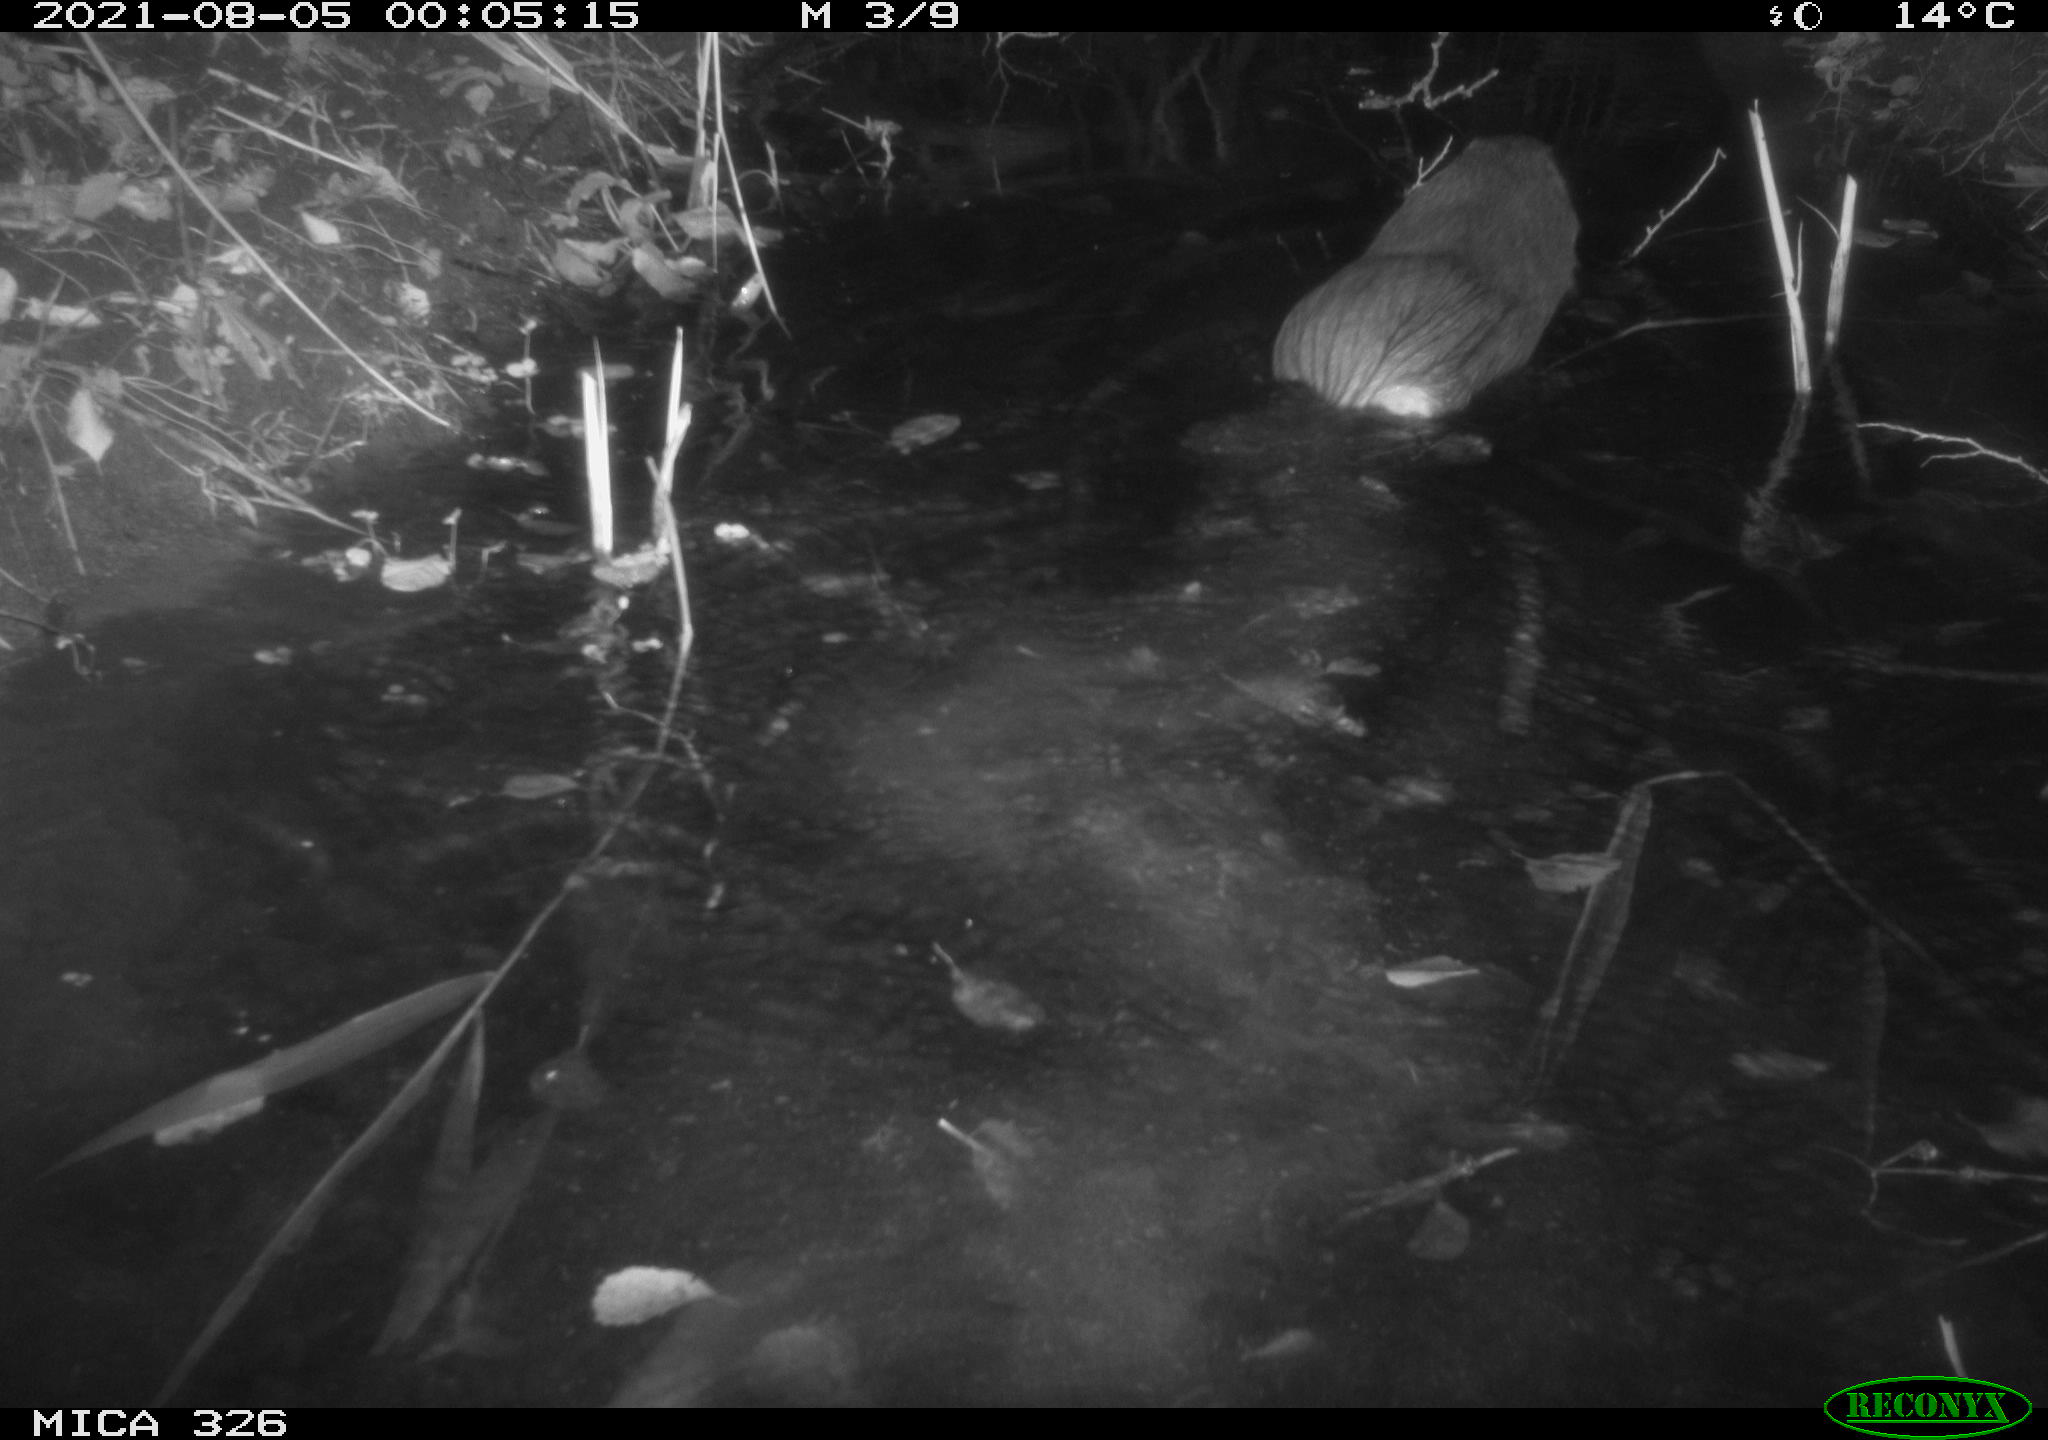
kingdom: Animalia
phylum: Chordata
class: Mammalia
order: Rodentia
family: Myocastoridae
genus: Myocastor
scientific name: Myocastor coypus
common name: Coypu
